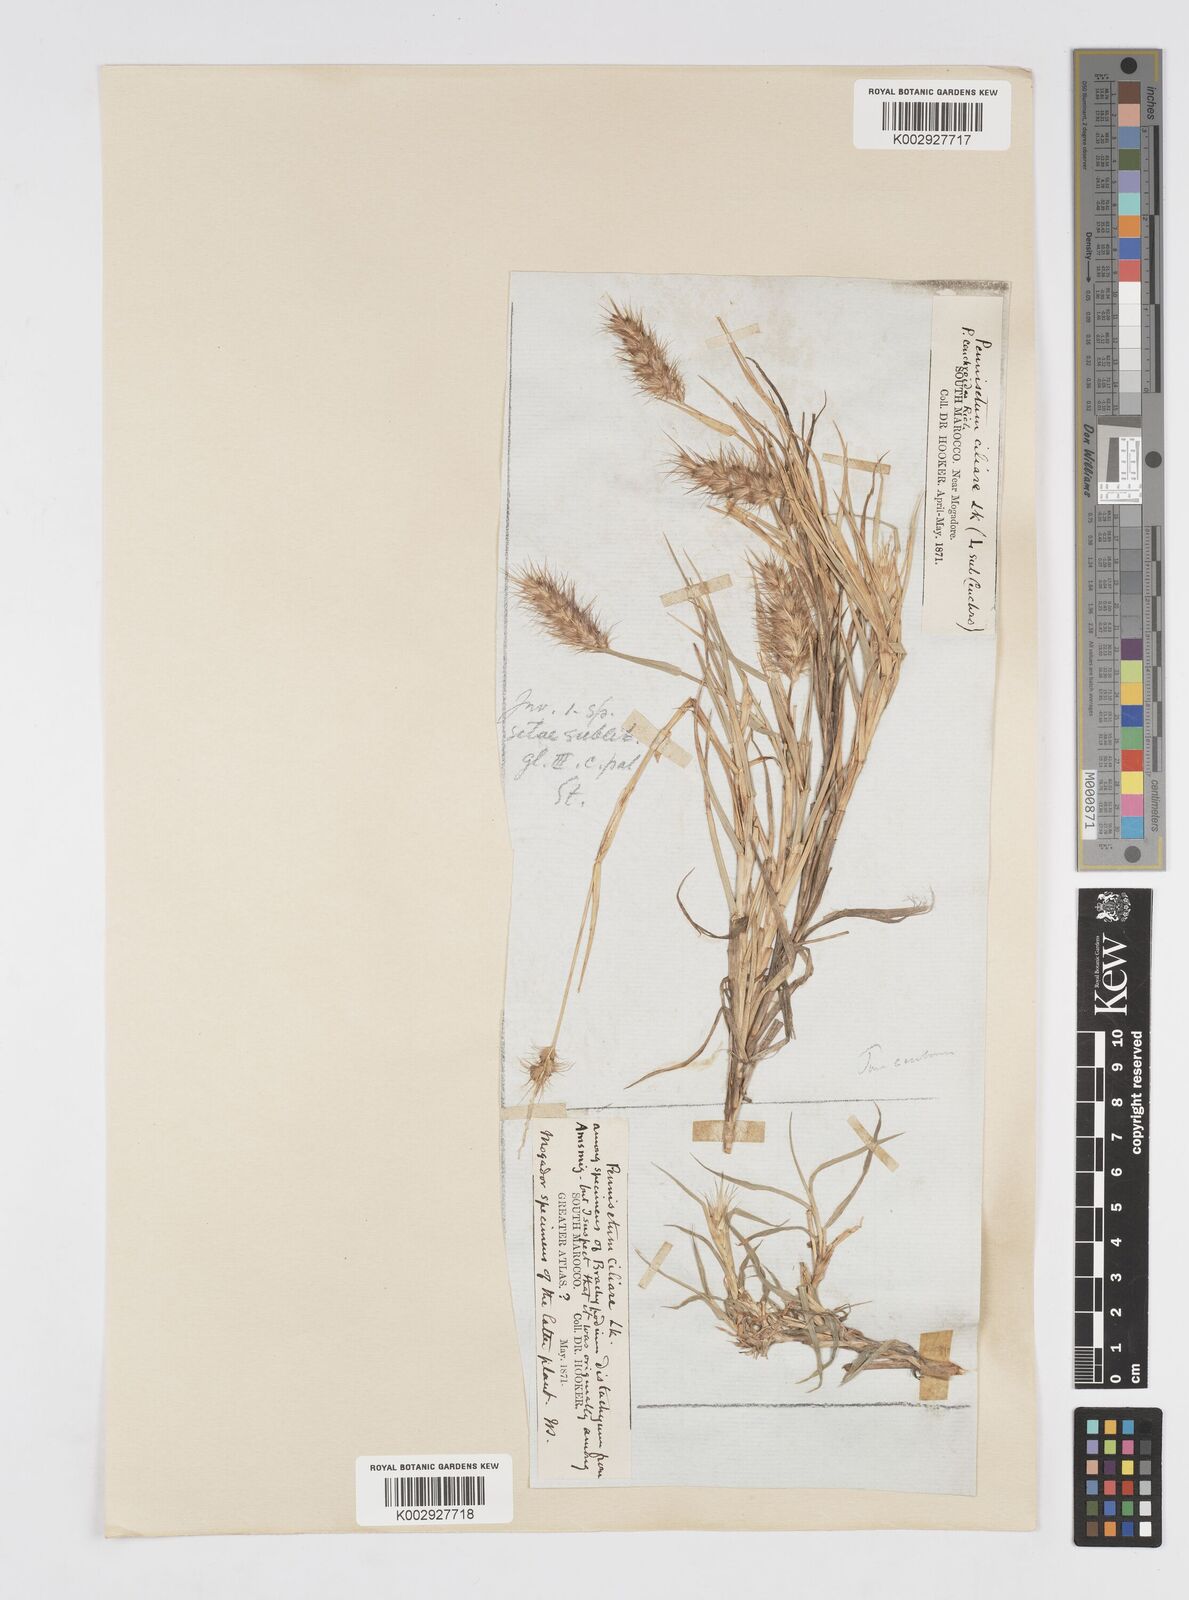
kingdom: Plantae
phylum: Tracheophyta
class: Liliopsida
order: Poales
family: Poaceae
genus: Cenchrus
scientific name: Cenchrus ciliaris
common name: Buffelgrass
